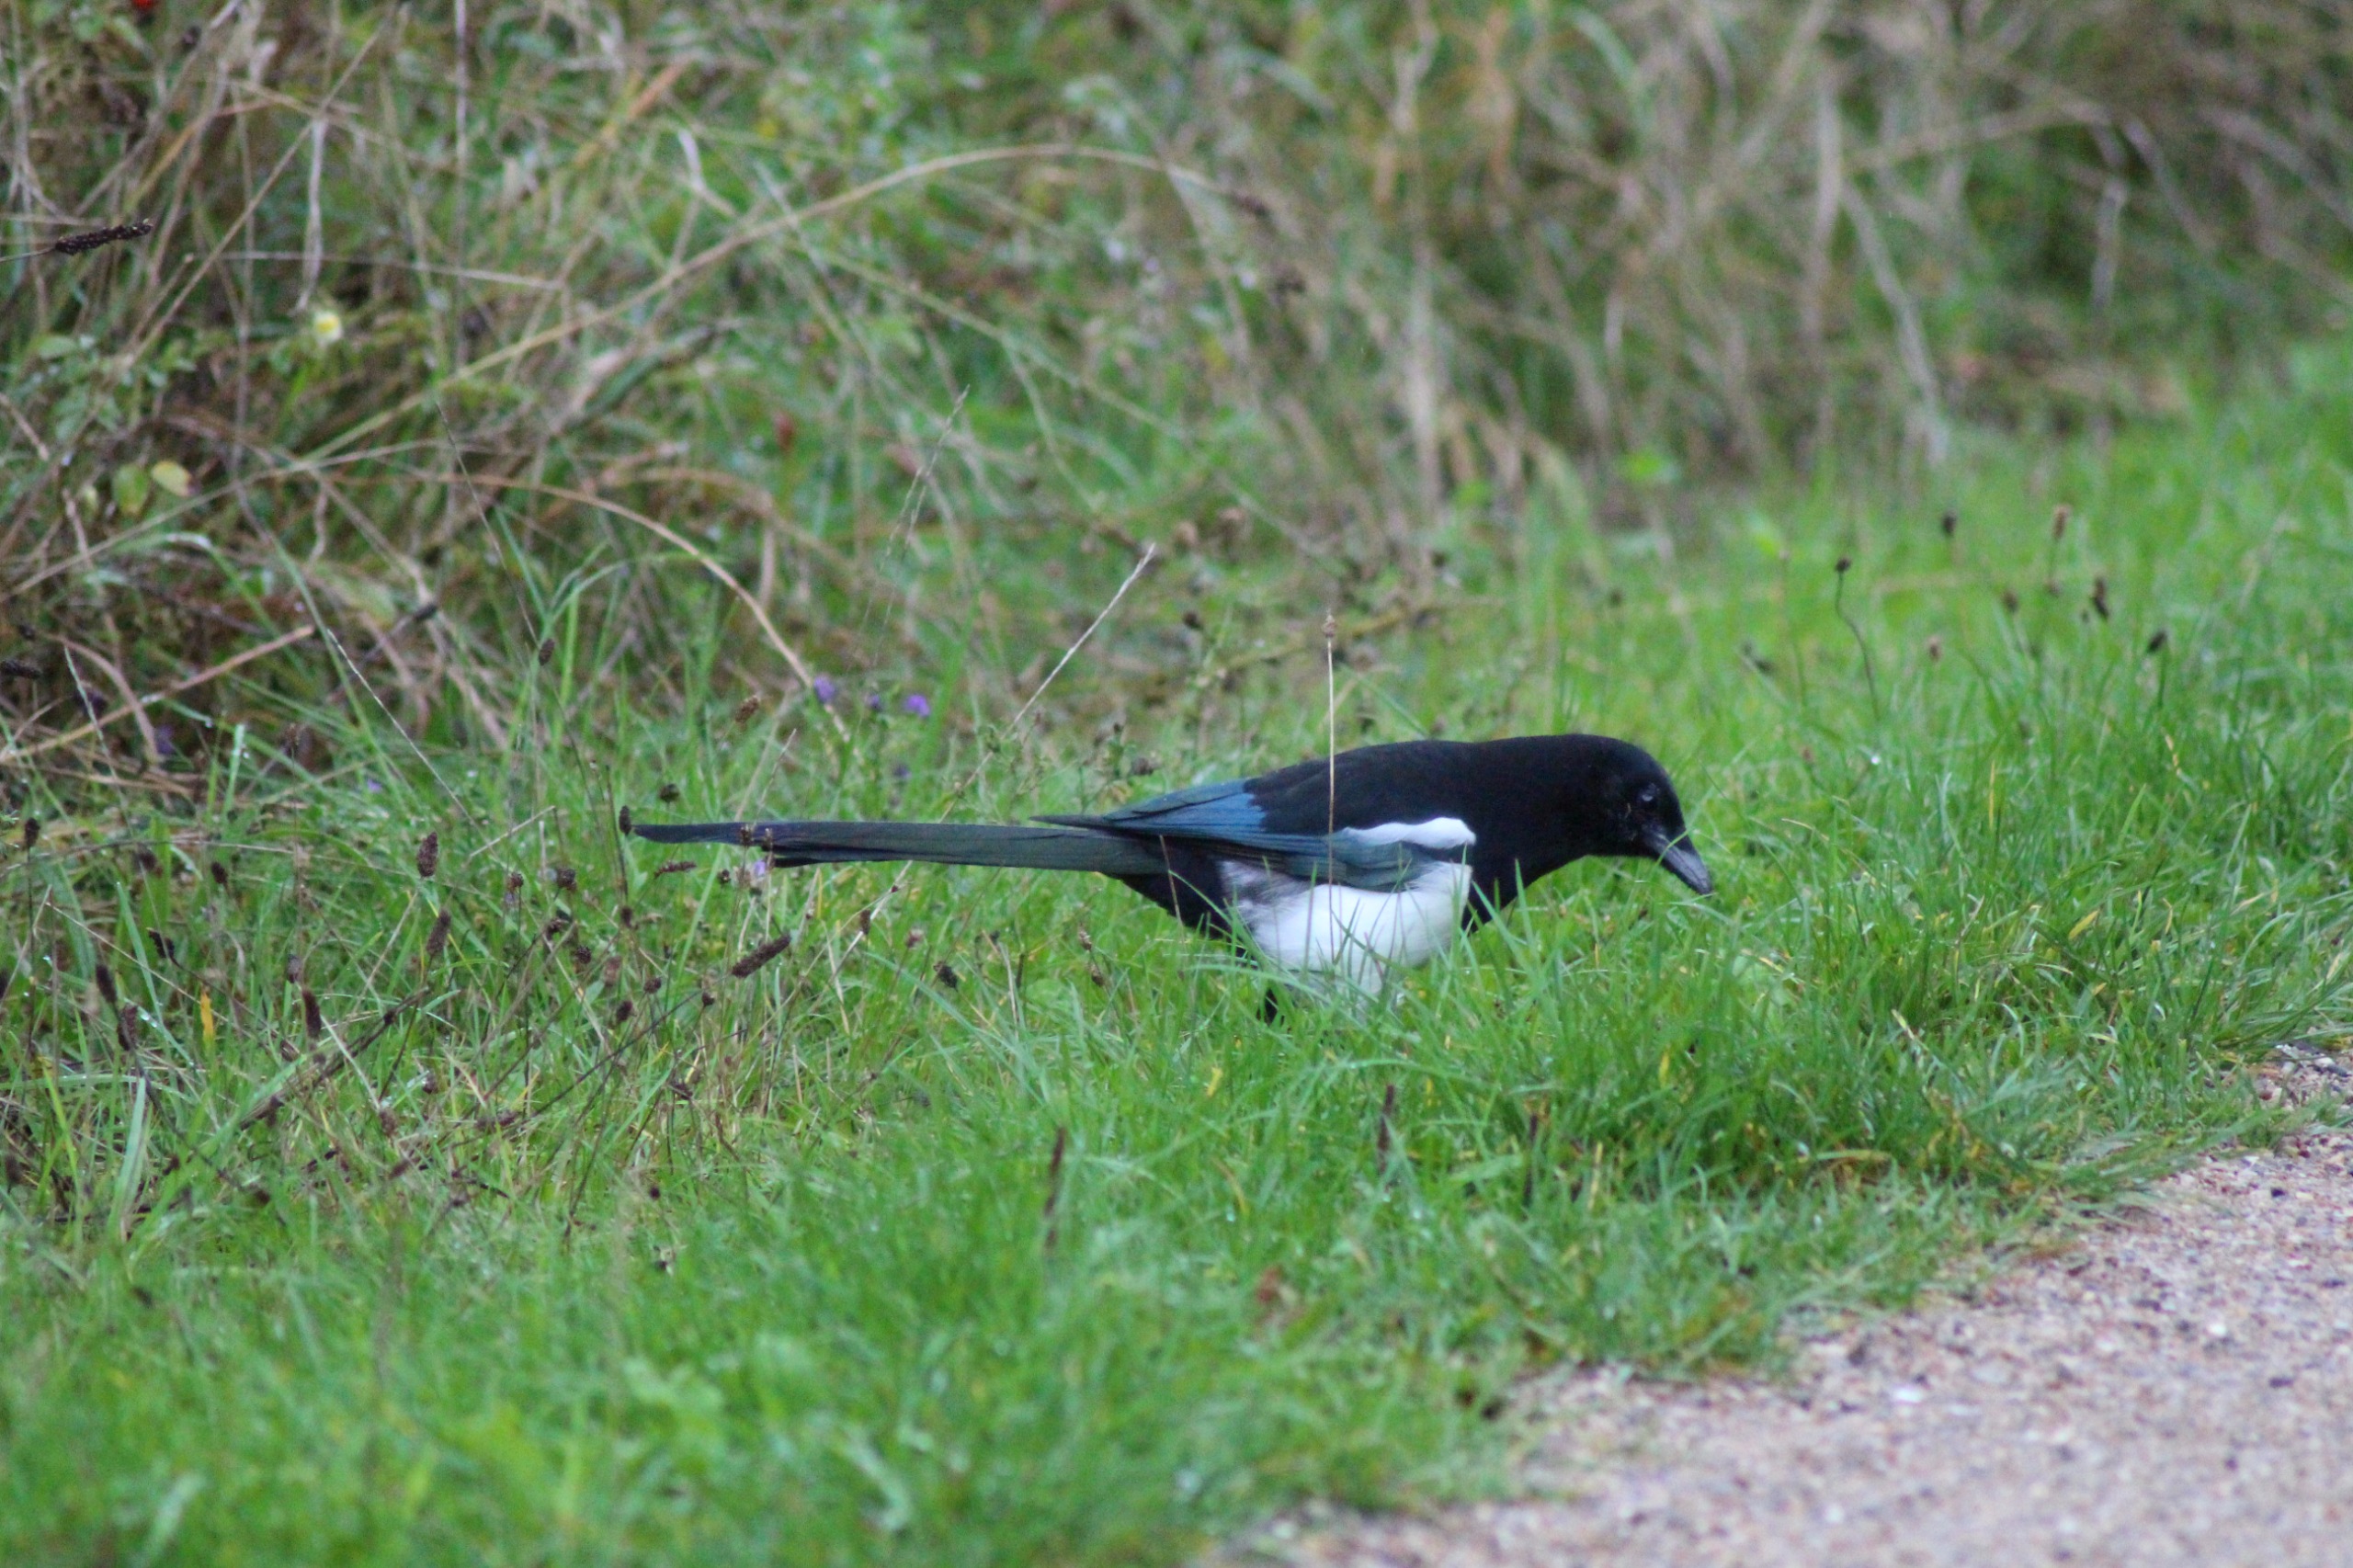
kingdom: Animalia
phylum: Chordata
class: Aves
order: Passeriformes
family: Corvidae
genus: Pica
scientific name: Pica pica
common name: Husskade
